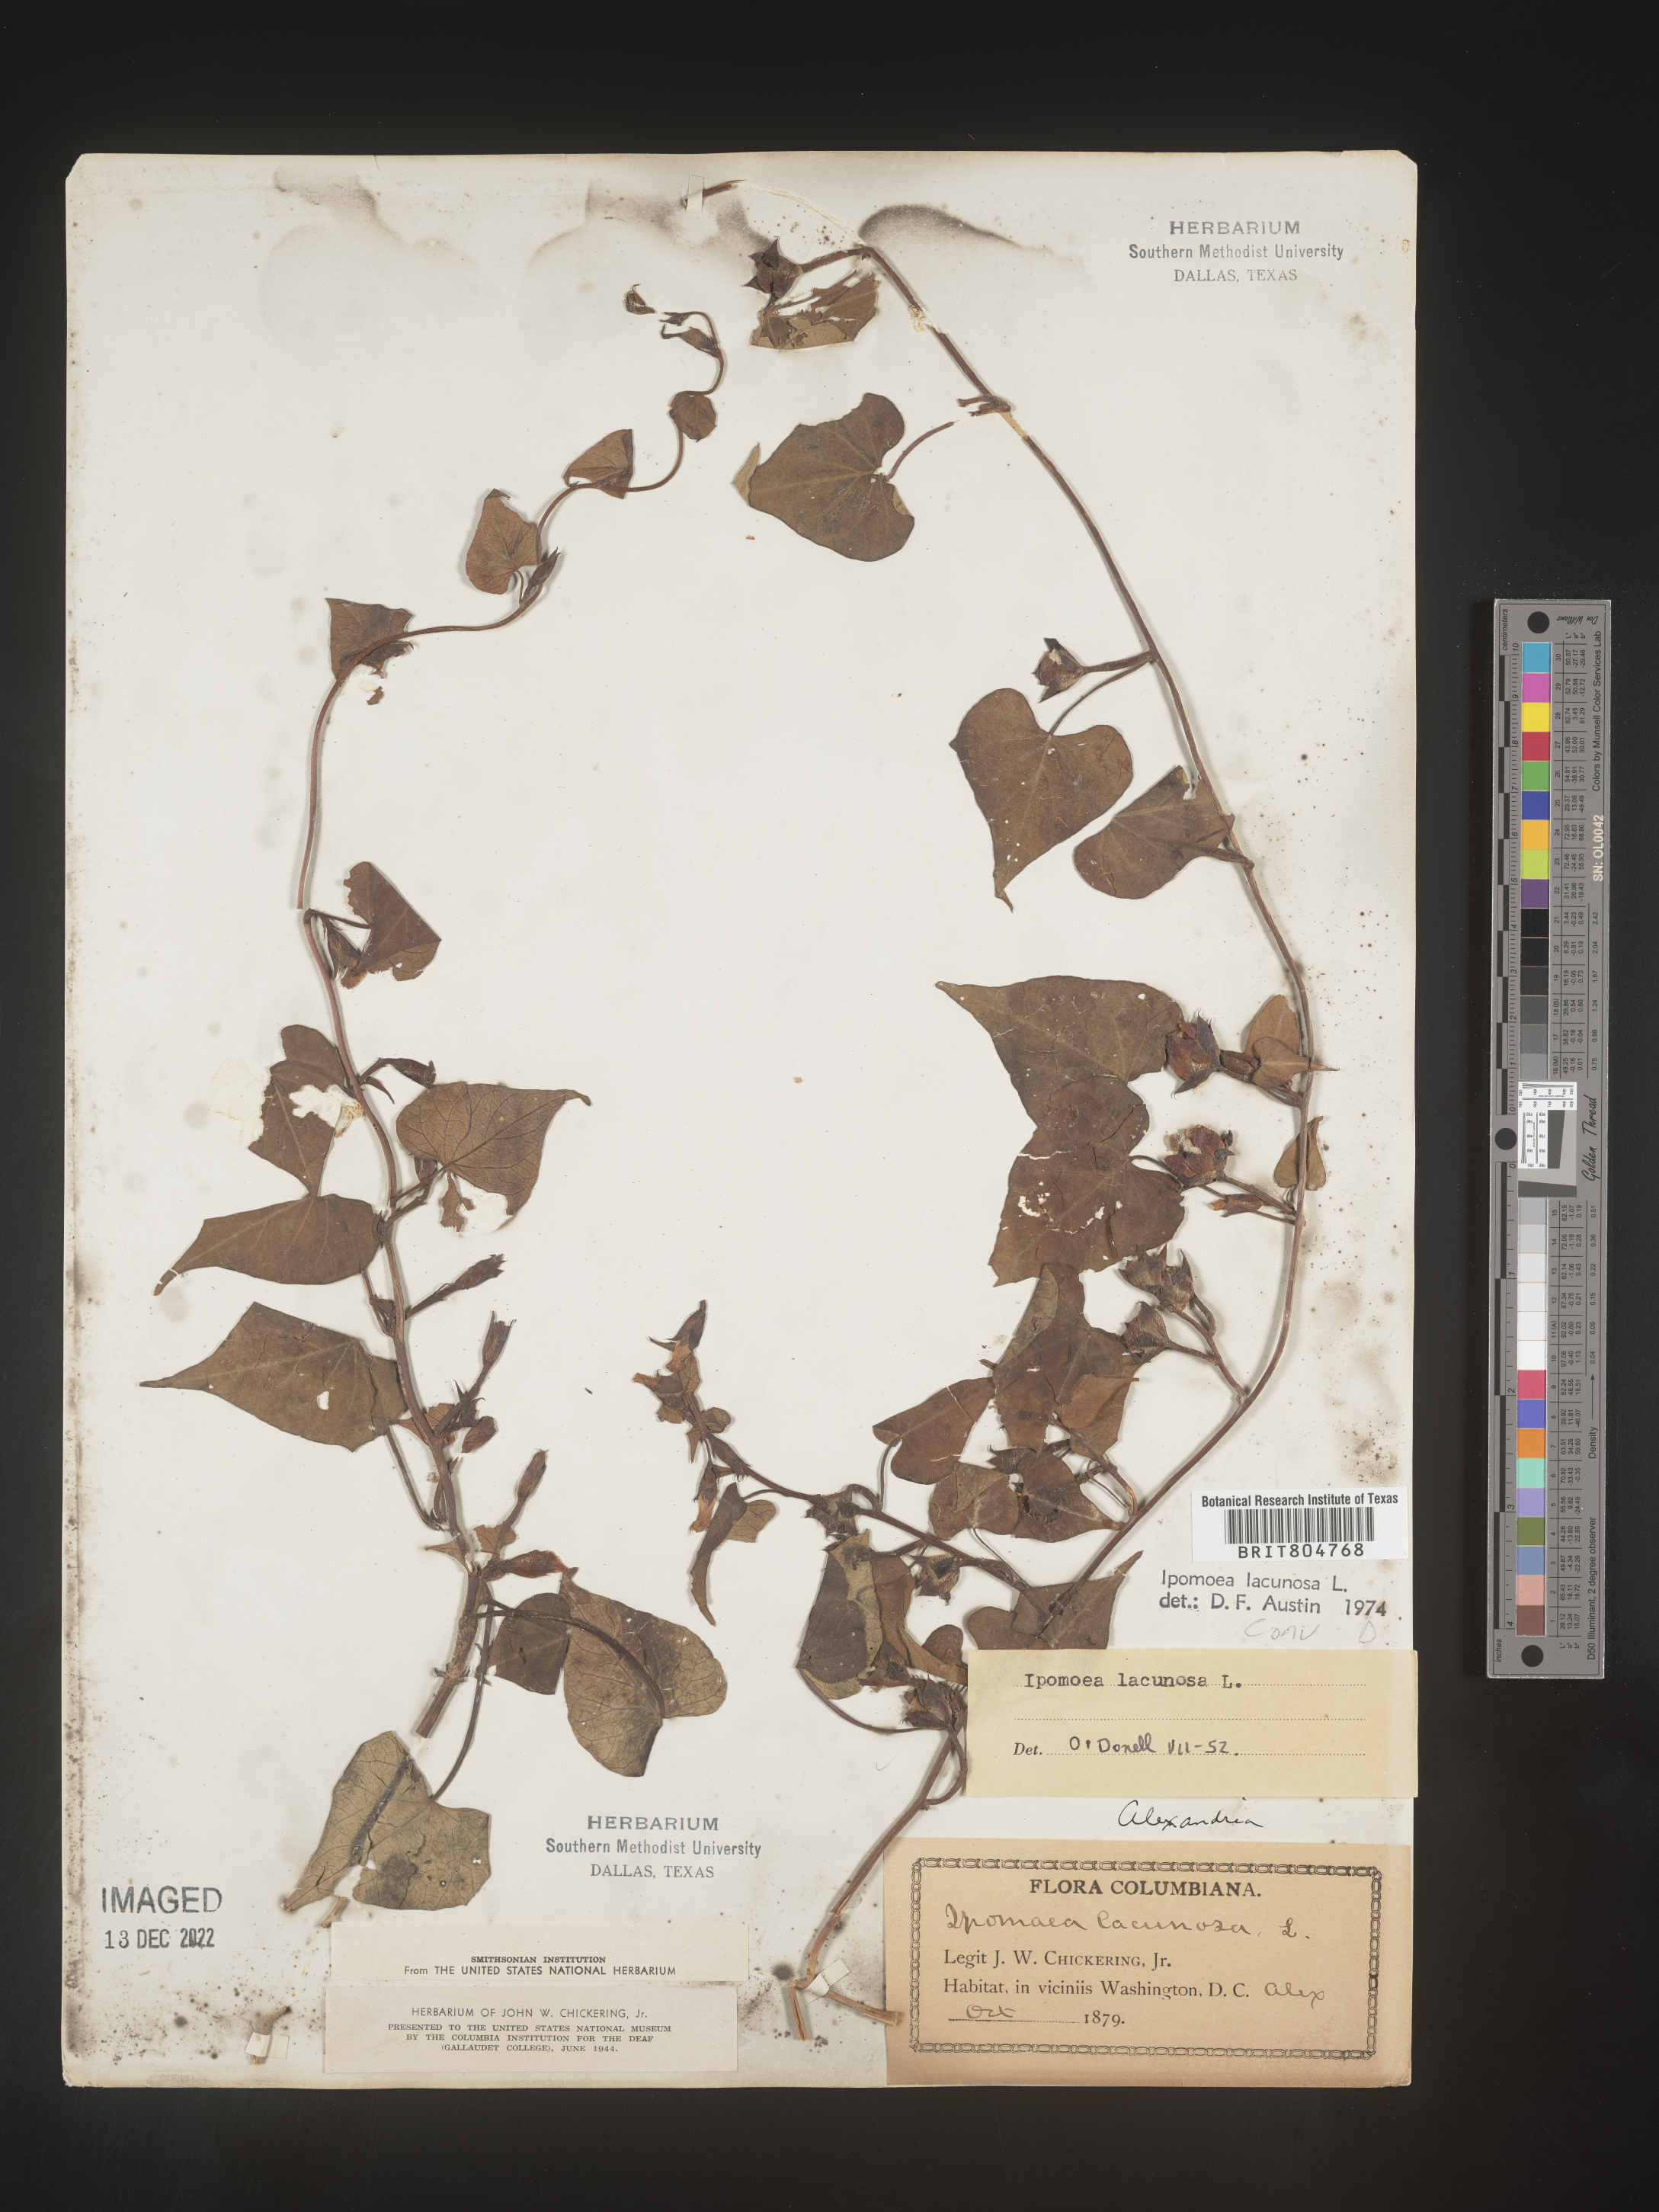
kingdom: Plantae
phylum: Tracheophyta
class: Magnoliopsida
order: Solanales
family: Convolvulaceae
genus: Ipomoea
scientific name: Ipomoea lacunosa
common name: White morning-glory
